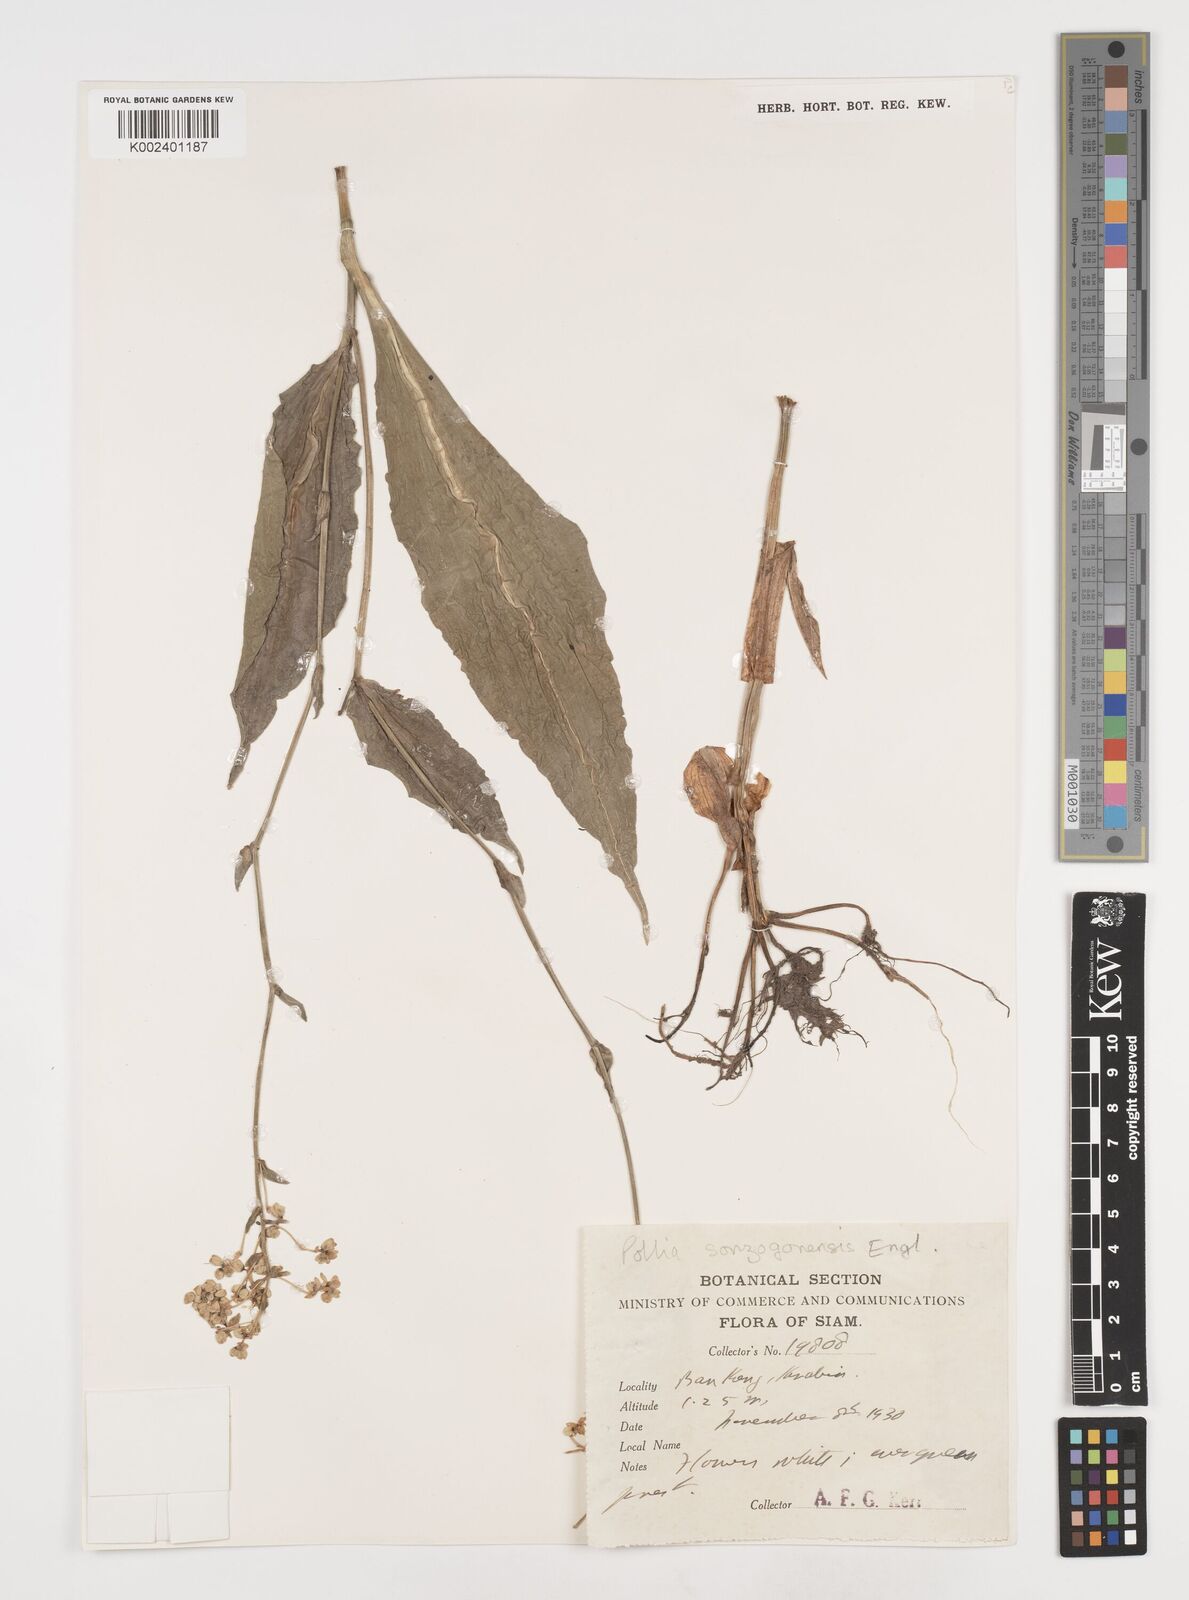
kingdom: Plantae
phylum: Tracheophyta
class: Liliopsida
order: Commelinales
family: Commelinaceae
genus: Pollia
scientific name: Pollia secundiflora
